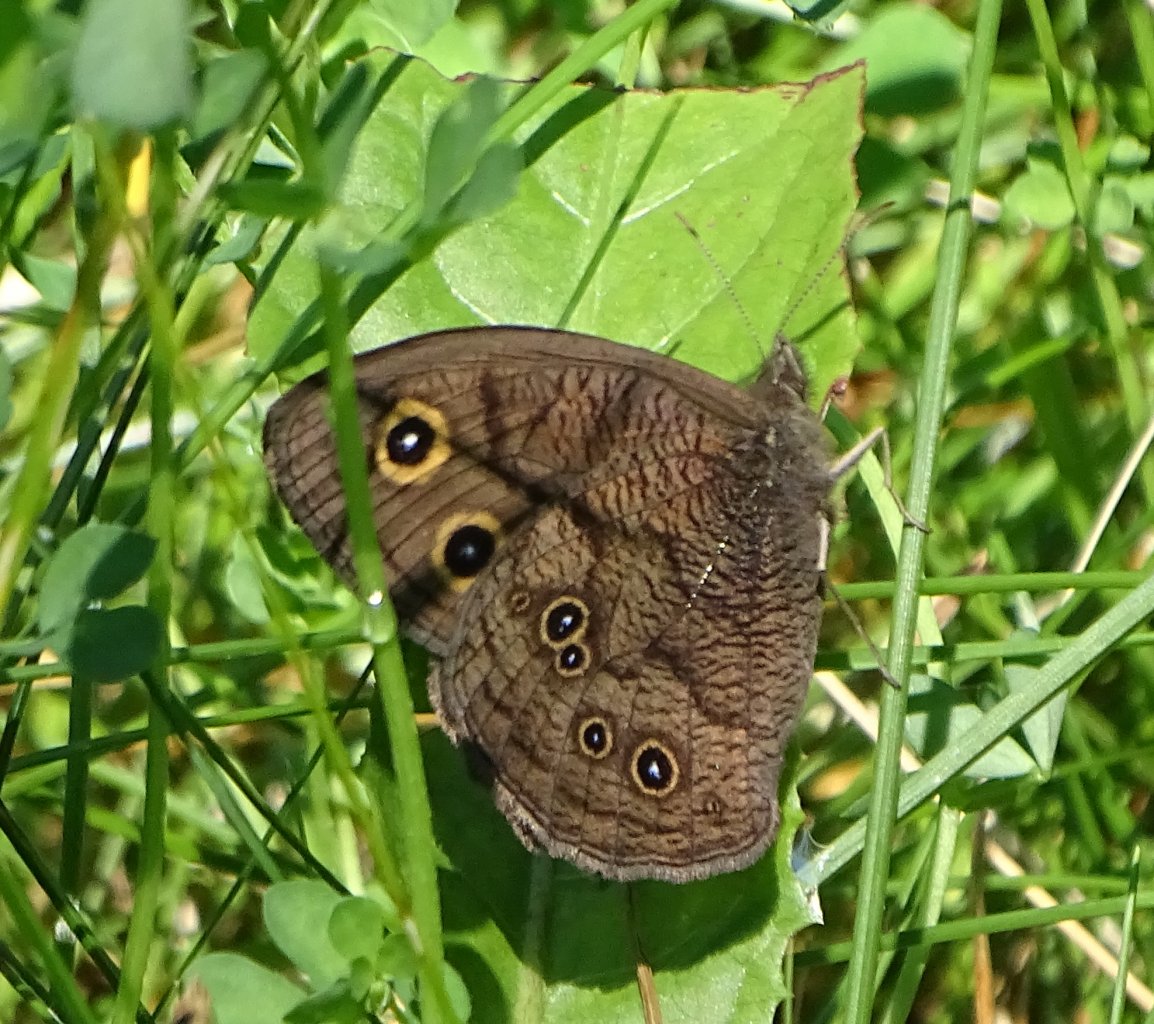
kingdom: Animalia
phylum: Arthropoda
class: Insecta
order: Lepidoptera
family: Nymphalidae
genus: Cercyonis
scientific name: Cercyonis pegala
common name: Common Wood-Nymph
